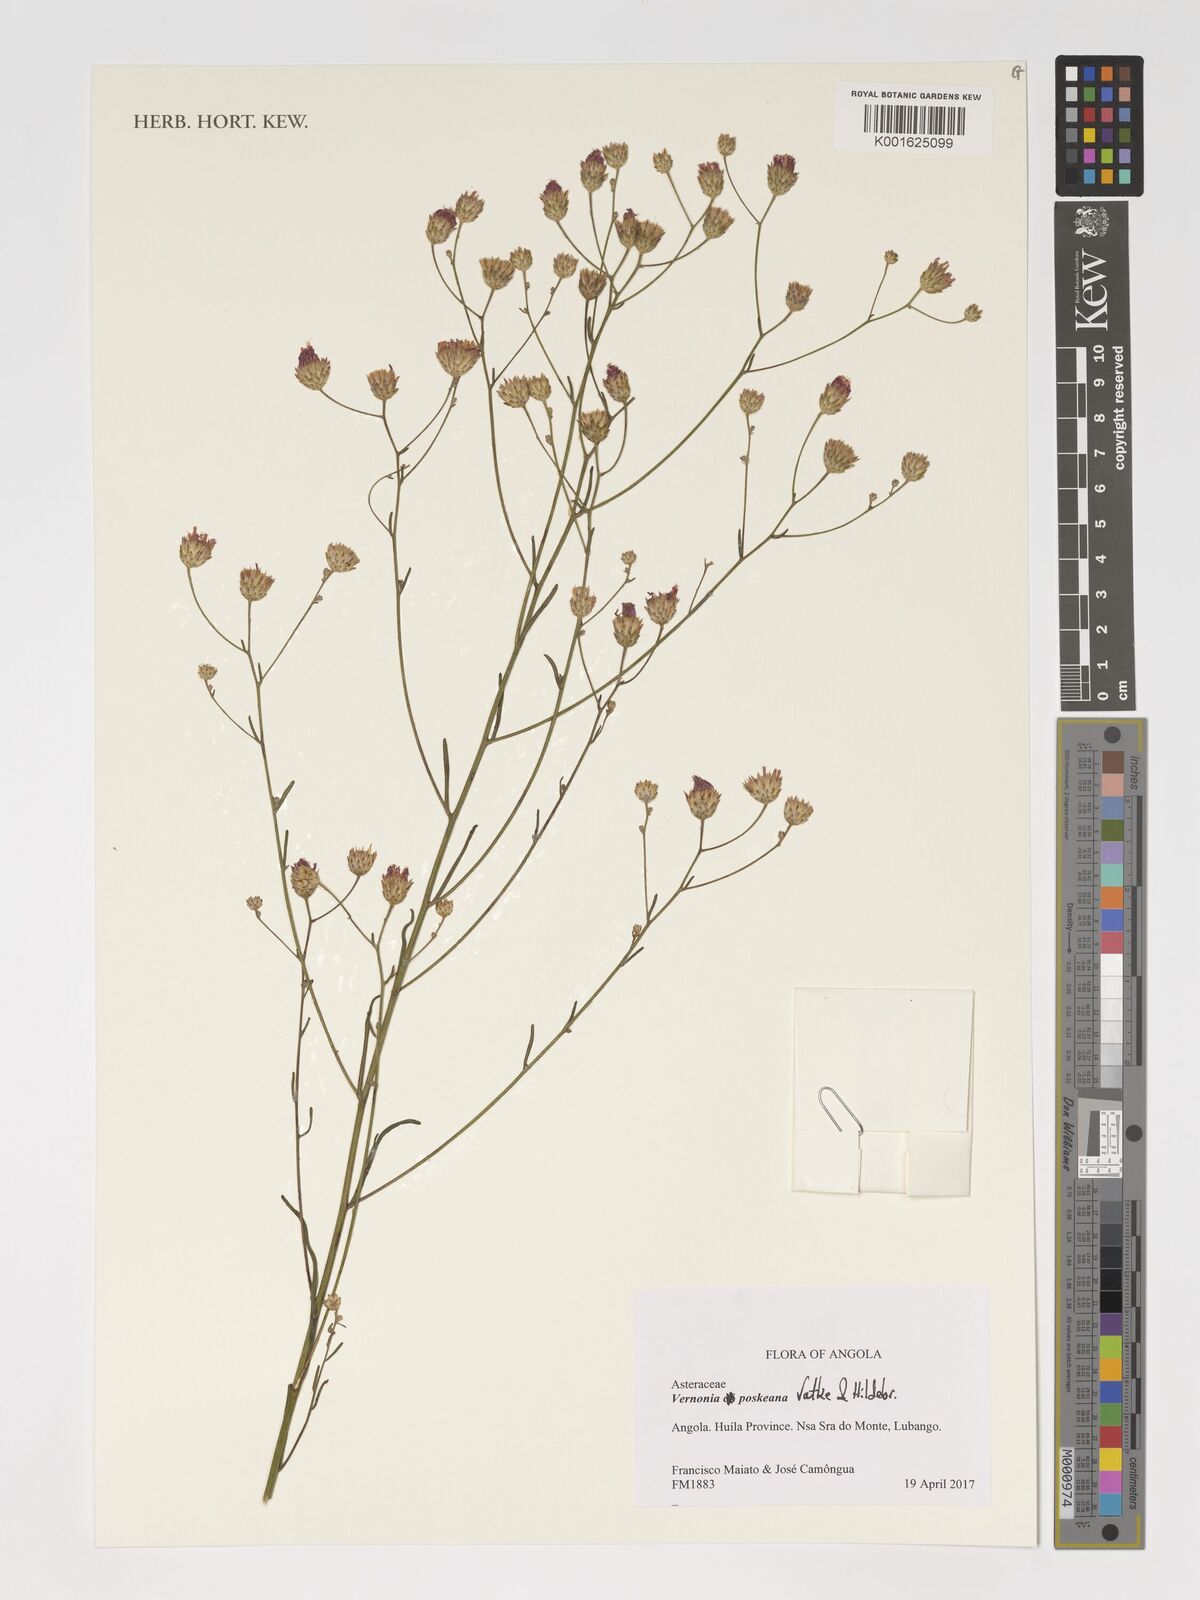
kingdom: Plantae
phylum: Tracheophyta
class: Magnoliopsida
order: Asterales
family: Asteraceae
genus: Crystallopollen
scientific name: Crystallopollen angustifolium
